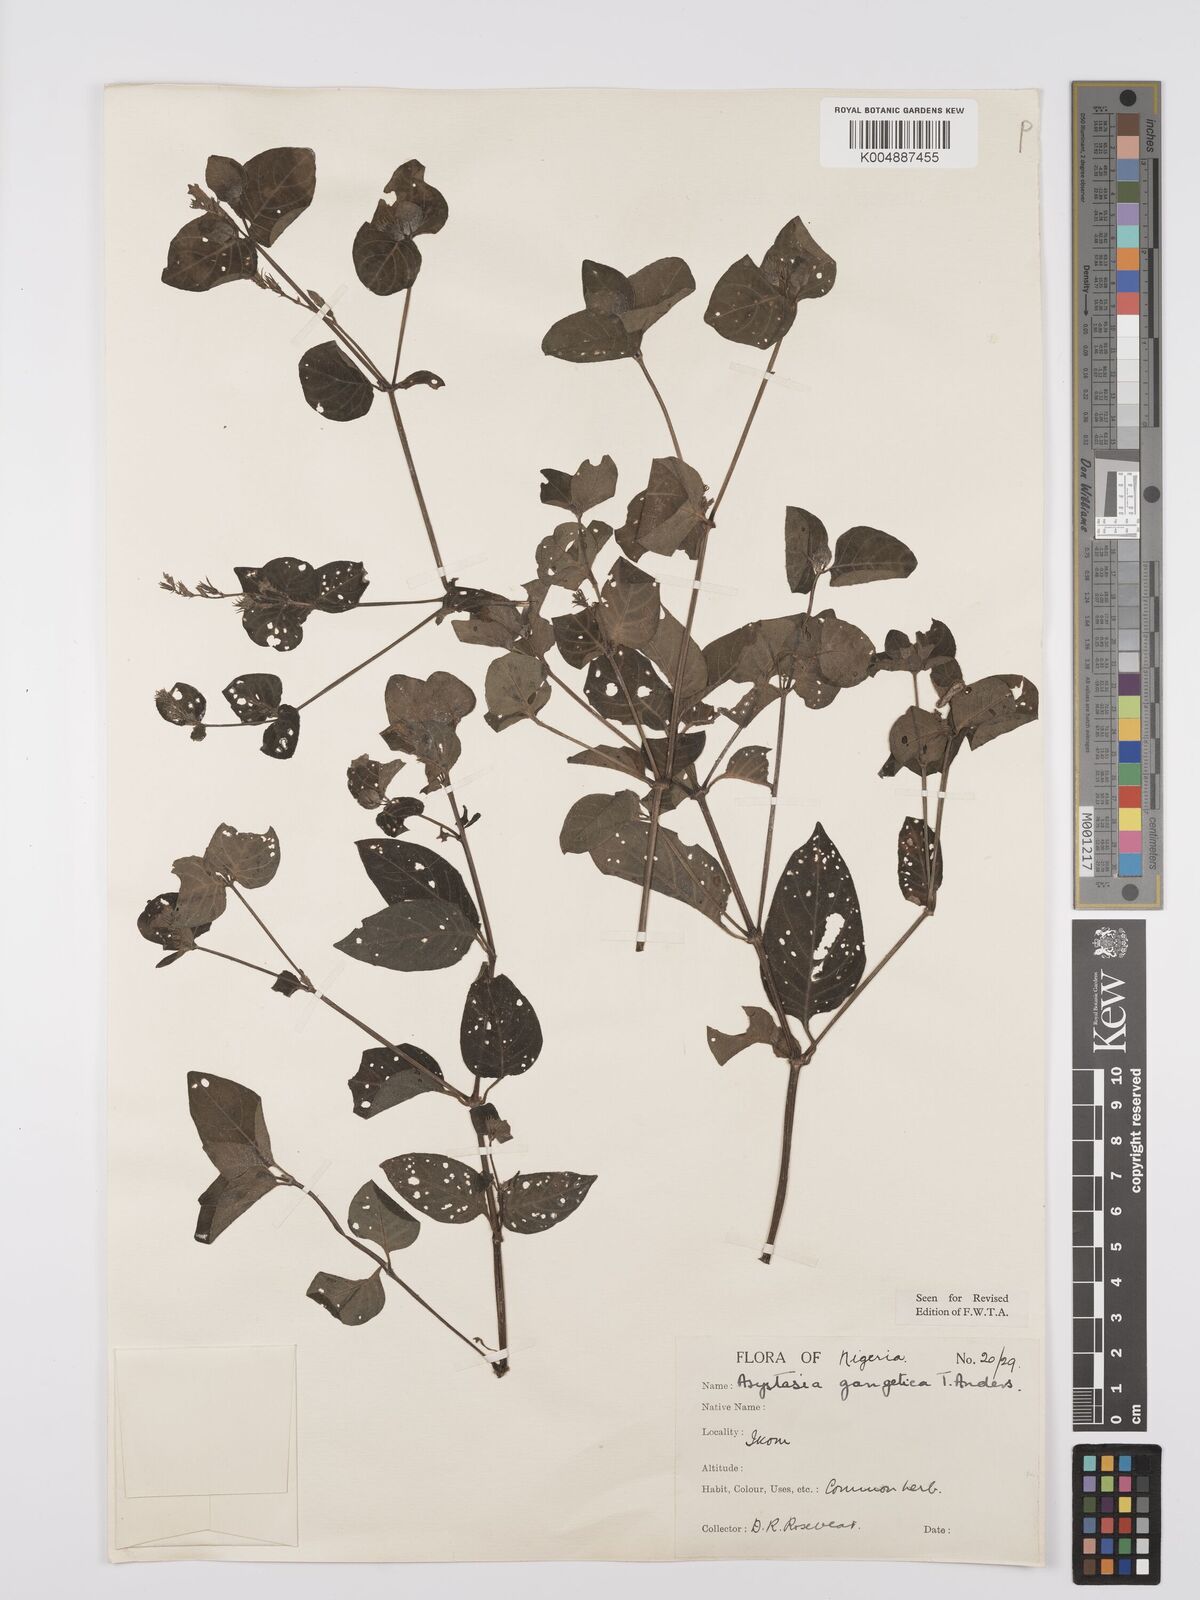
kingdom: Plantae
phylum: Tracheophyta
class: Magnoliopsida
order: Lamiales
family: Acanthaceae
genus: Asystasia
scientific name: Asystasia gangetica
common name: Chinese violet
